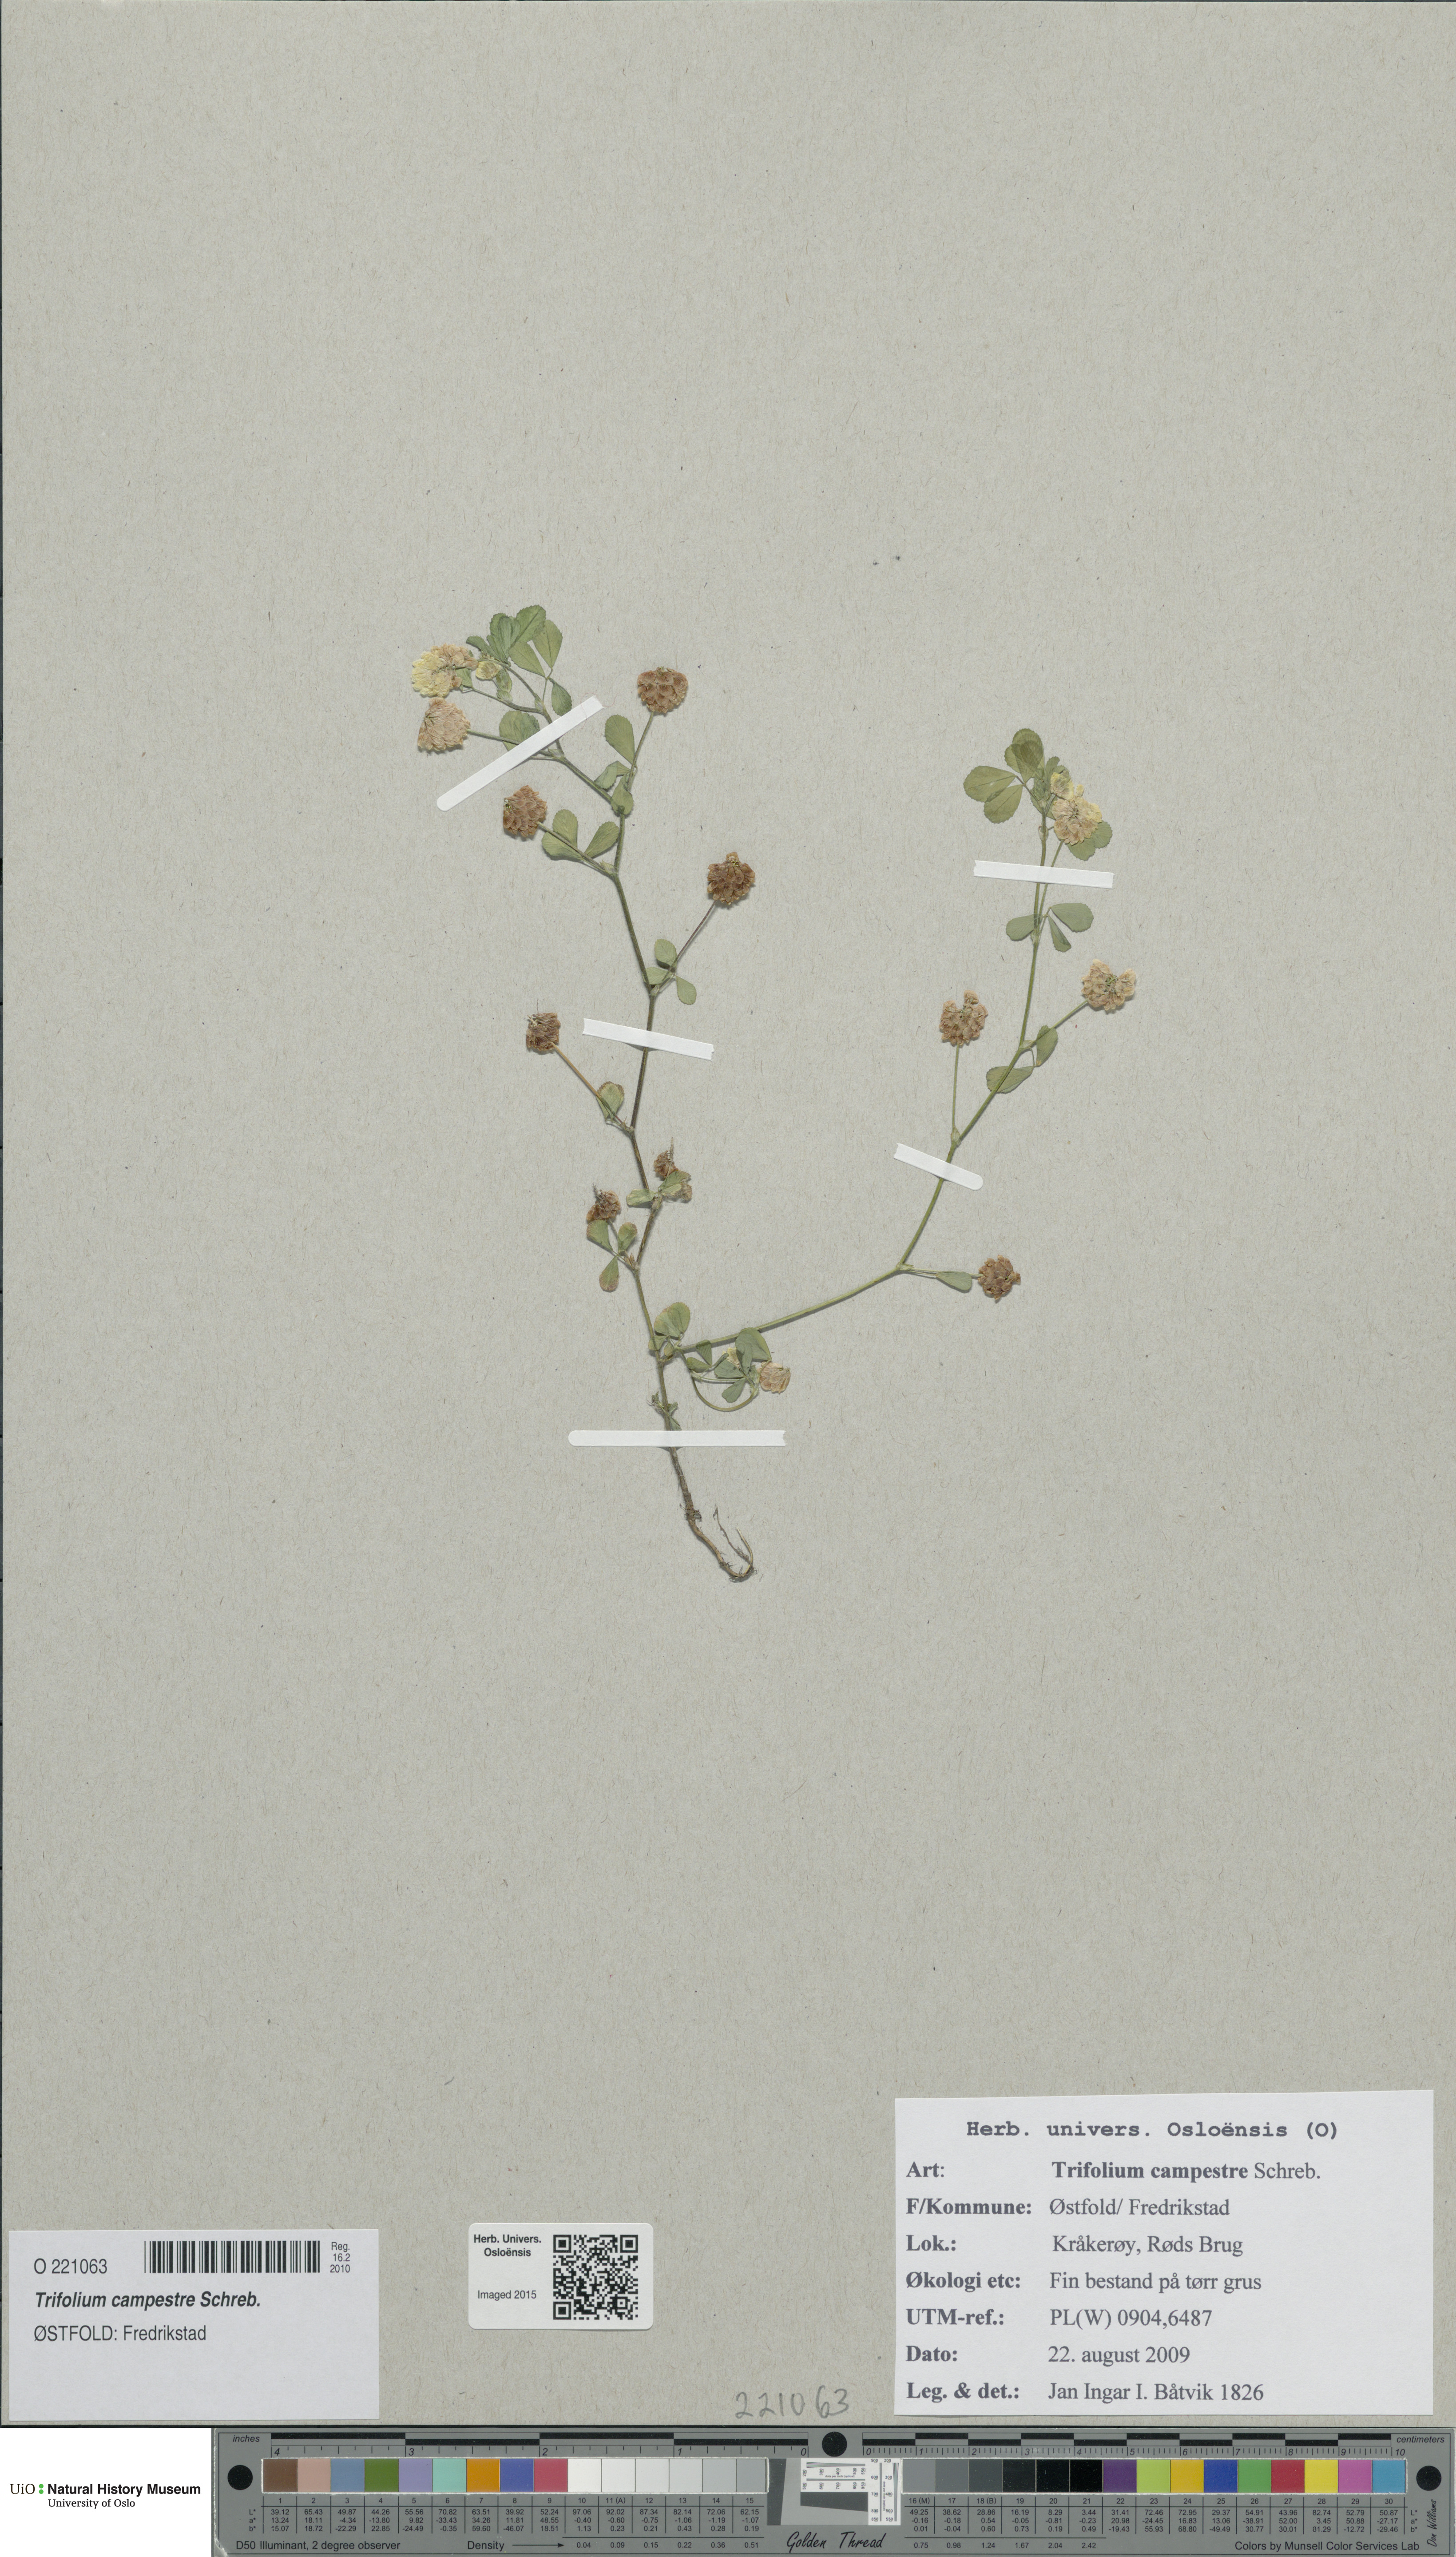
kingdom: Plantae
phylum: Tracheophyta
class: Magnoliopsida
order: Fabales
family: Fabaceae
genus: Trifolium
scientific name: Trifolium campestre
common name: Field clover
